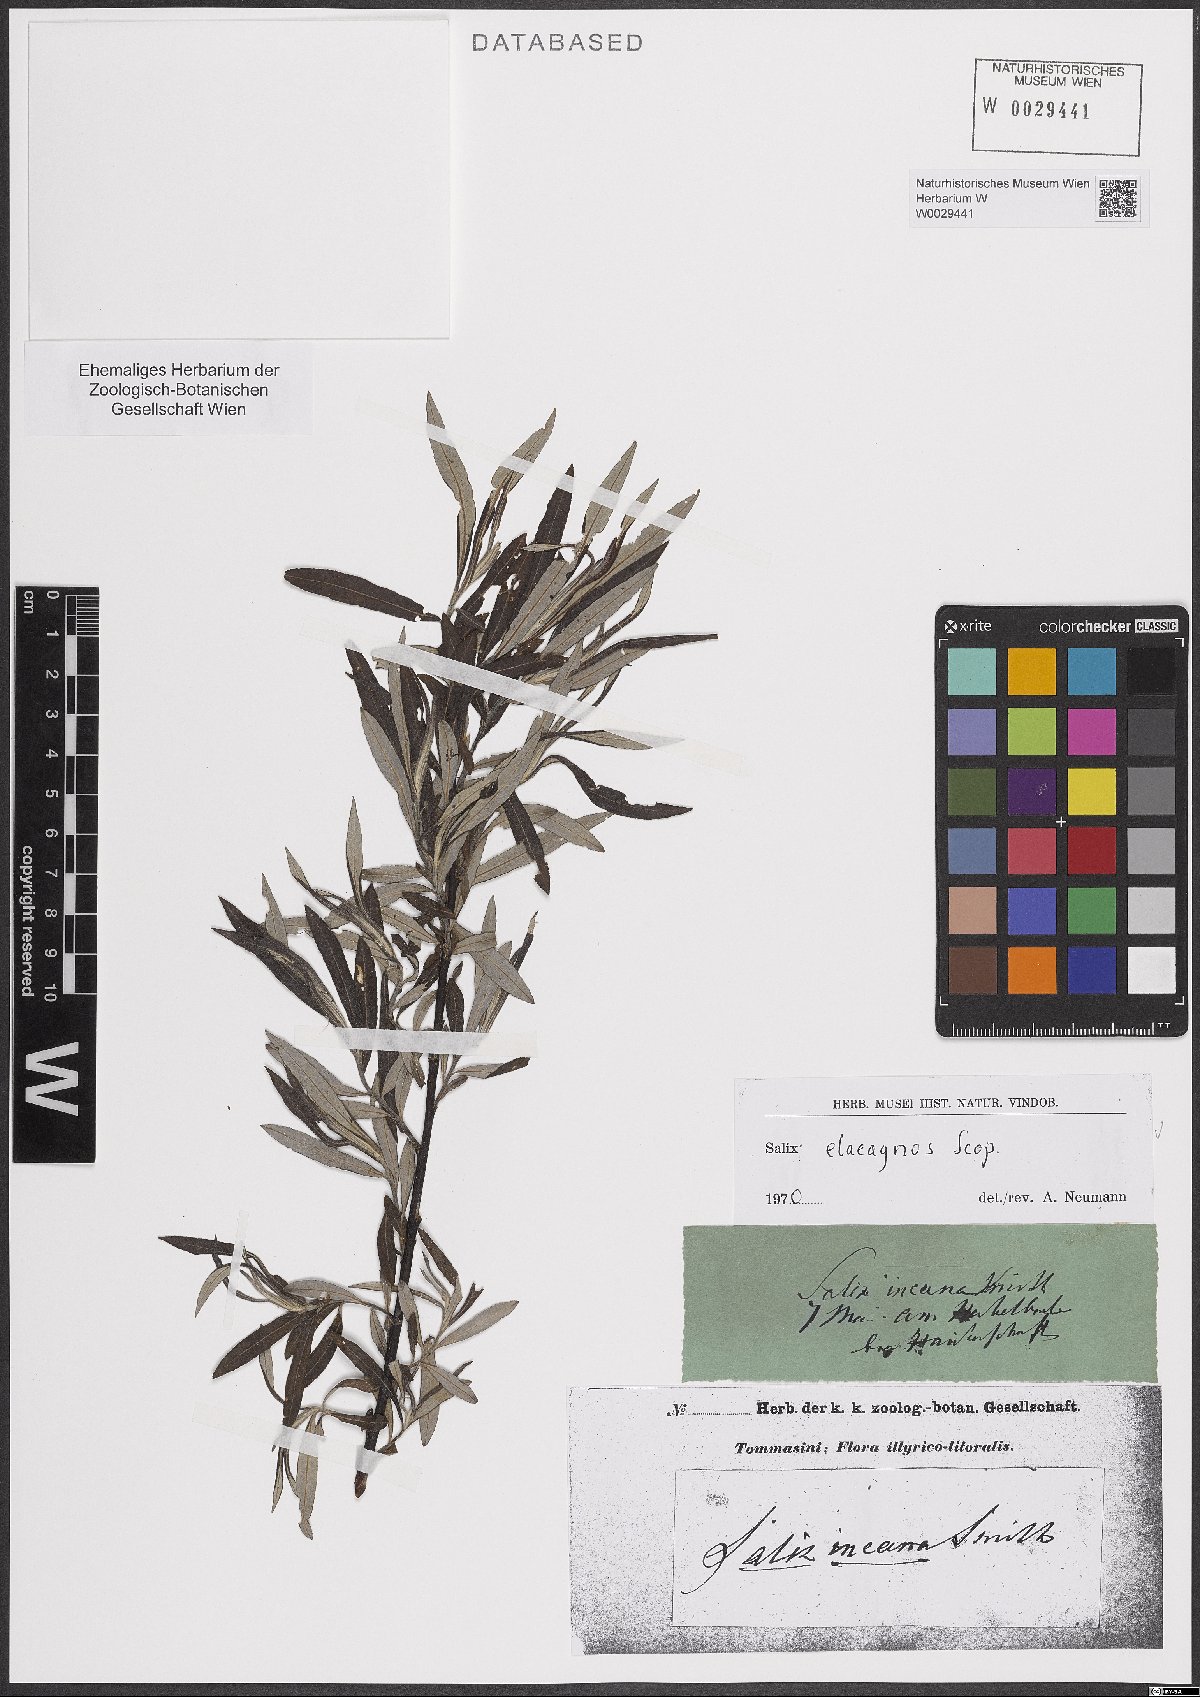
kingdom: Plantae
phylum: Tracheophyta
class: Magnoliopsida
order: Malpighiales
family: Salicaceae
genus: Salix
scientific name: Salix eleagnos
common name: Elaeagnus willow
